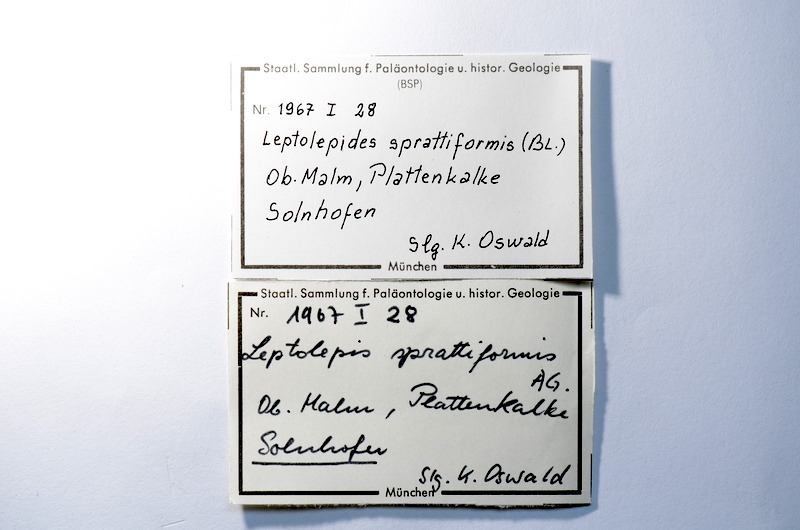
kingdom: Animalia
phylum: Chordata
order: Salmoniformes
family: Orthogonikleithridae
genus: Leptolepides
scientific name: Leptolepides sprattiformis
